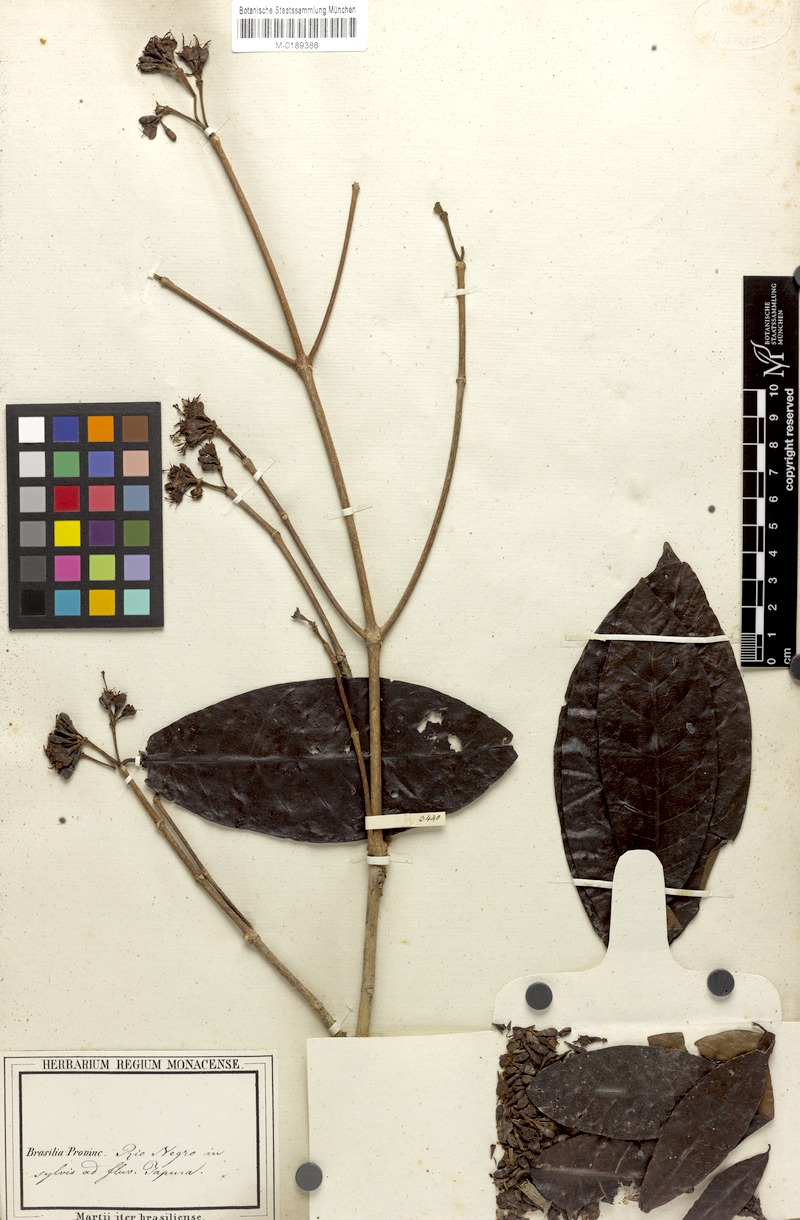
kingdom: Plantae
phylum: Tracheophyta
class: Magnoliopsida
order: Gentianales
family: Rubiaceae
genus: Simira
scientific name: Simira rubescens
